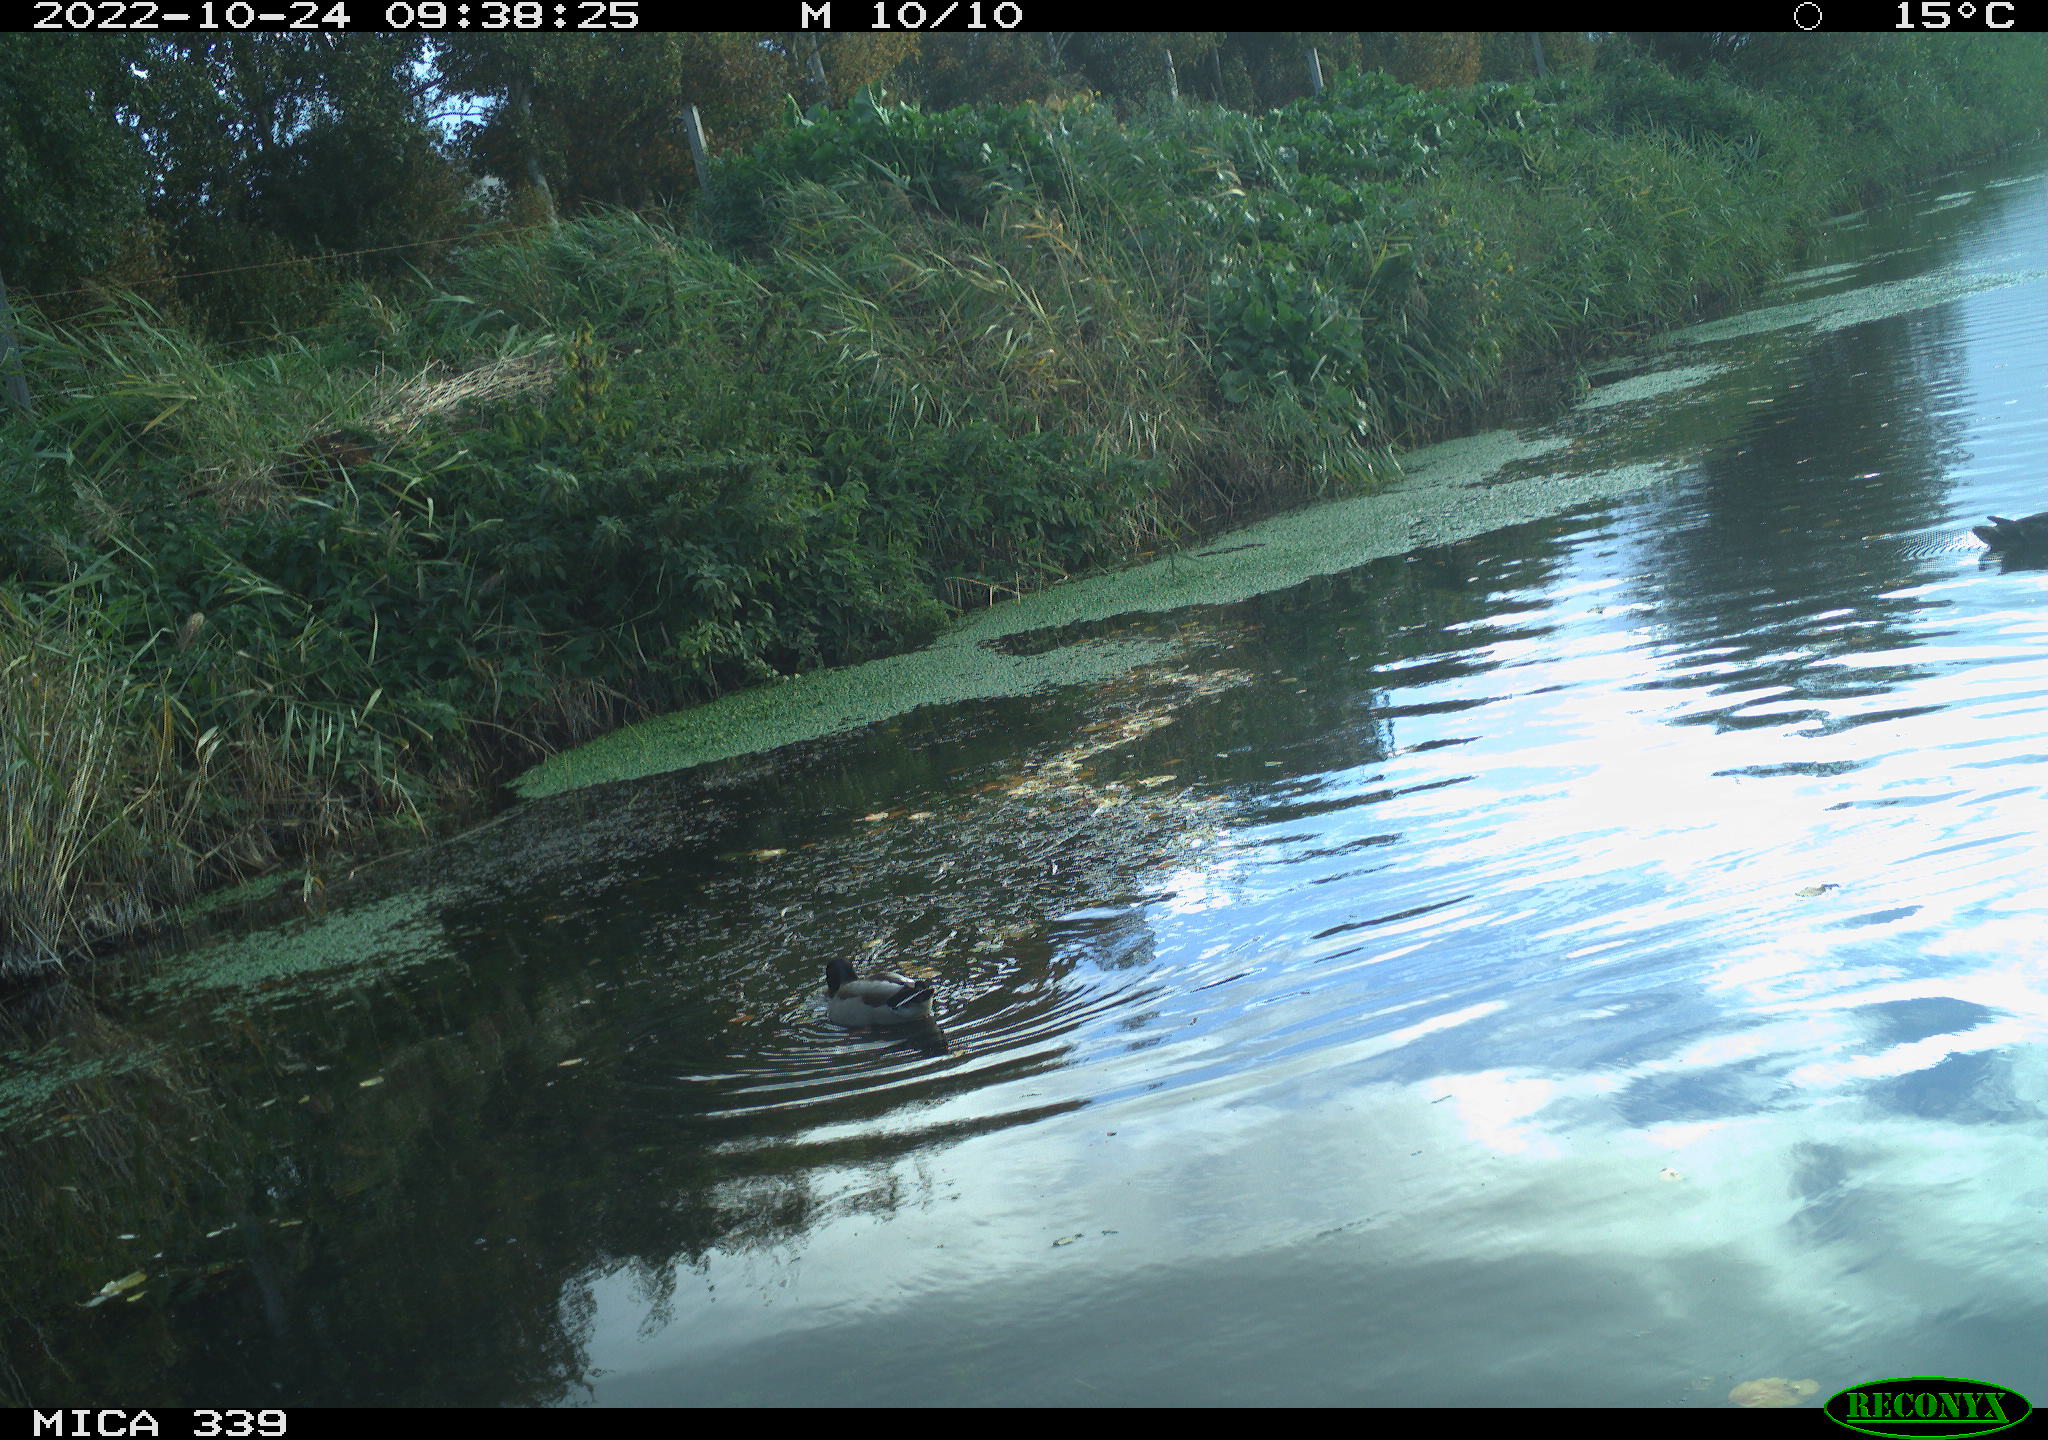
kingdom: Animalia
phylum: Chordata
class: Aves
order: Anseriformes
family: Anatidae
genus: Anas
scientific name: Anas platyrhynchos
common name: Mallard
